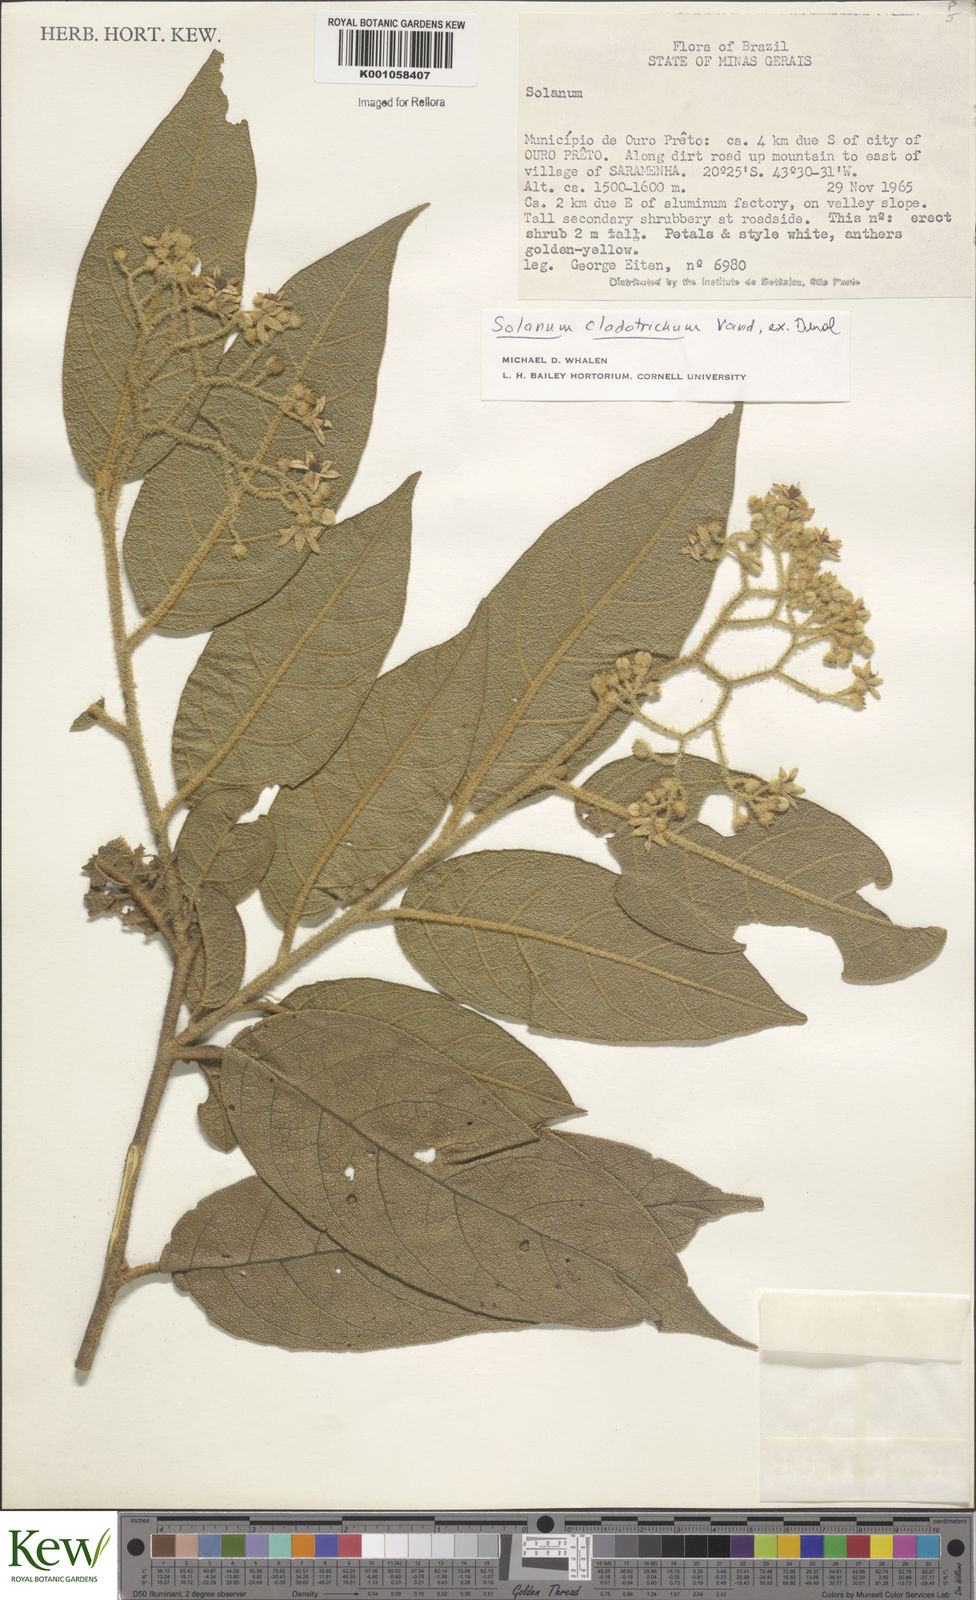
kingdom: Plantae
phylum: Tracheophyta
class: Magnoliopsida
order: Solanales
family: Solanaceae
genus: Solanum
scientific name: Solanum jussiaei
